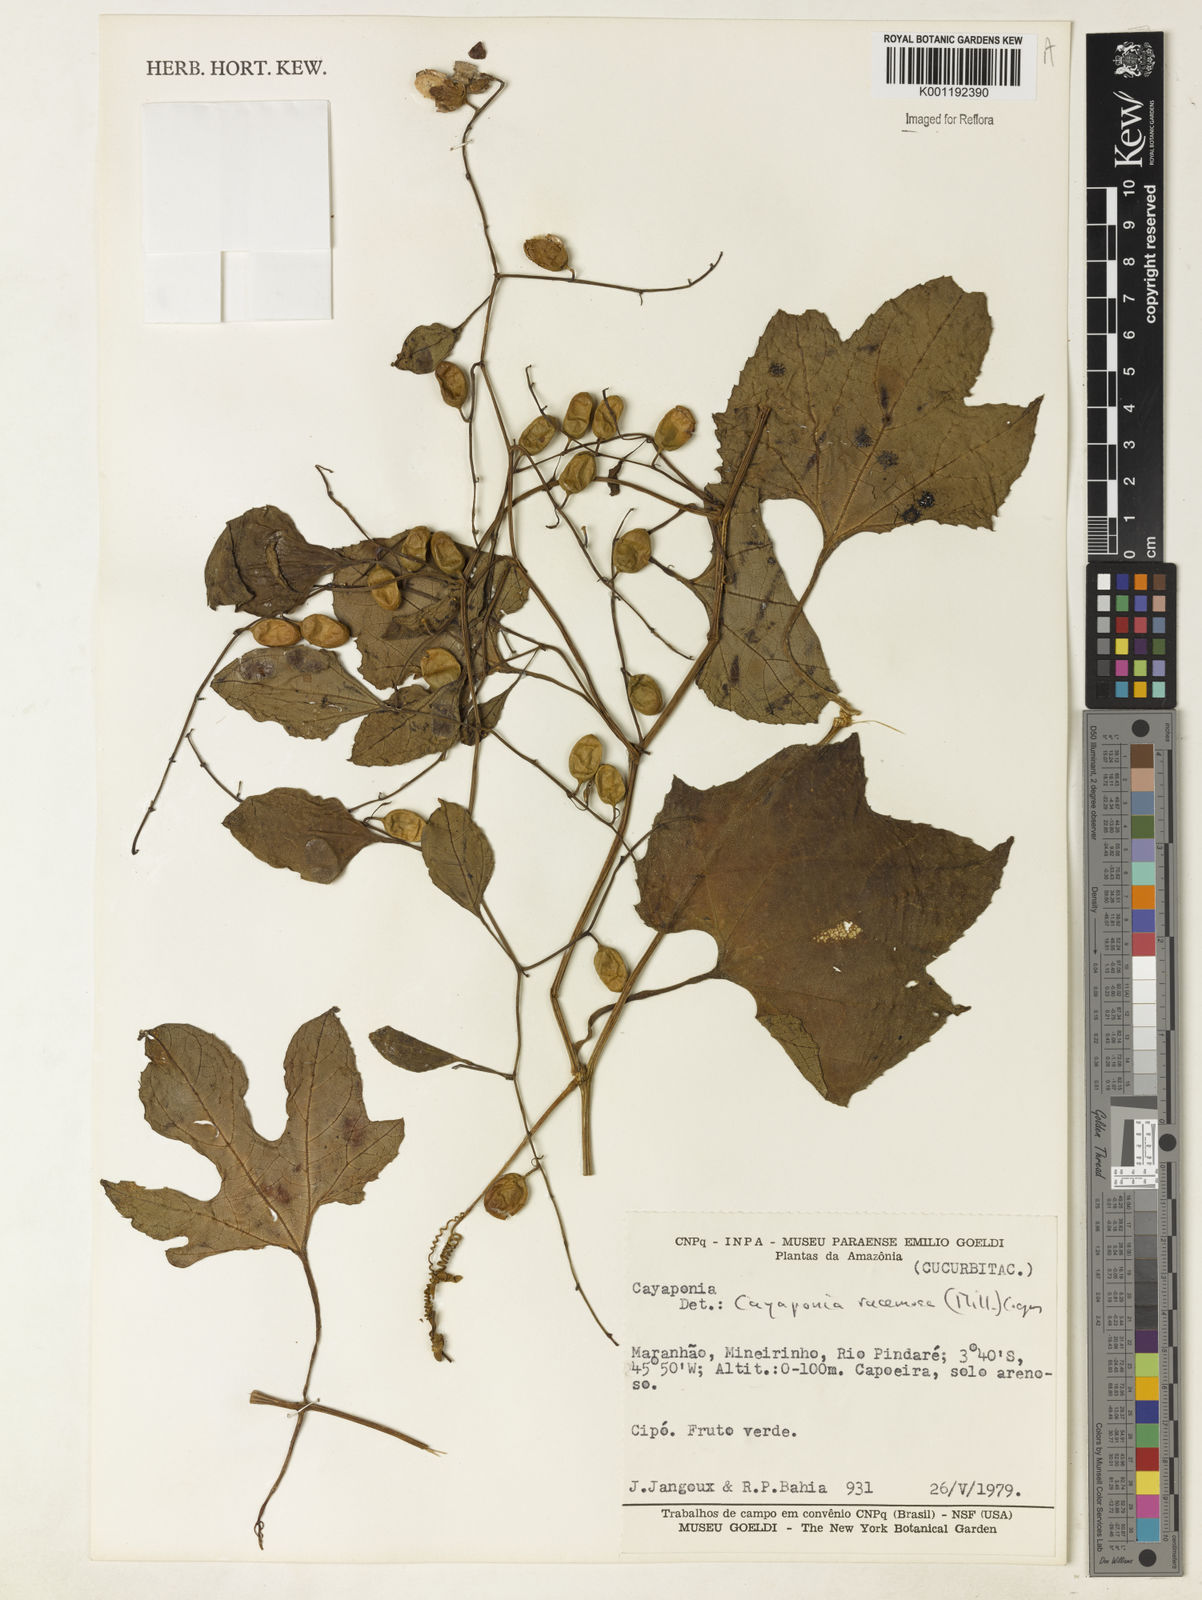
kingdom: Plantae
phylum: Tracheophyta
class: Magnoliopsida
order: Cucurbitales
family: Cucurbitaceae
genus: Cayaponia
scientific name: Cayaponia racemosa
